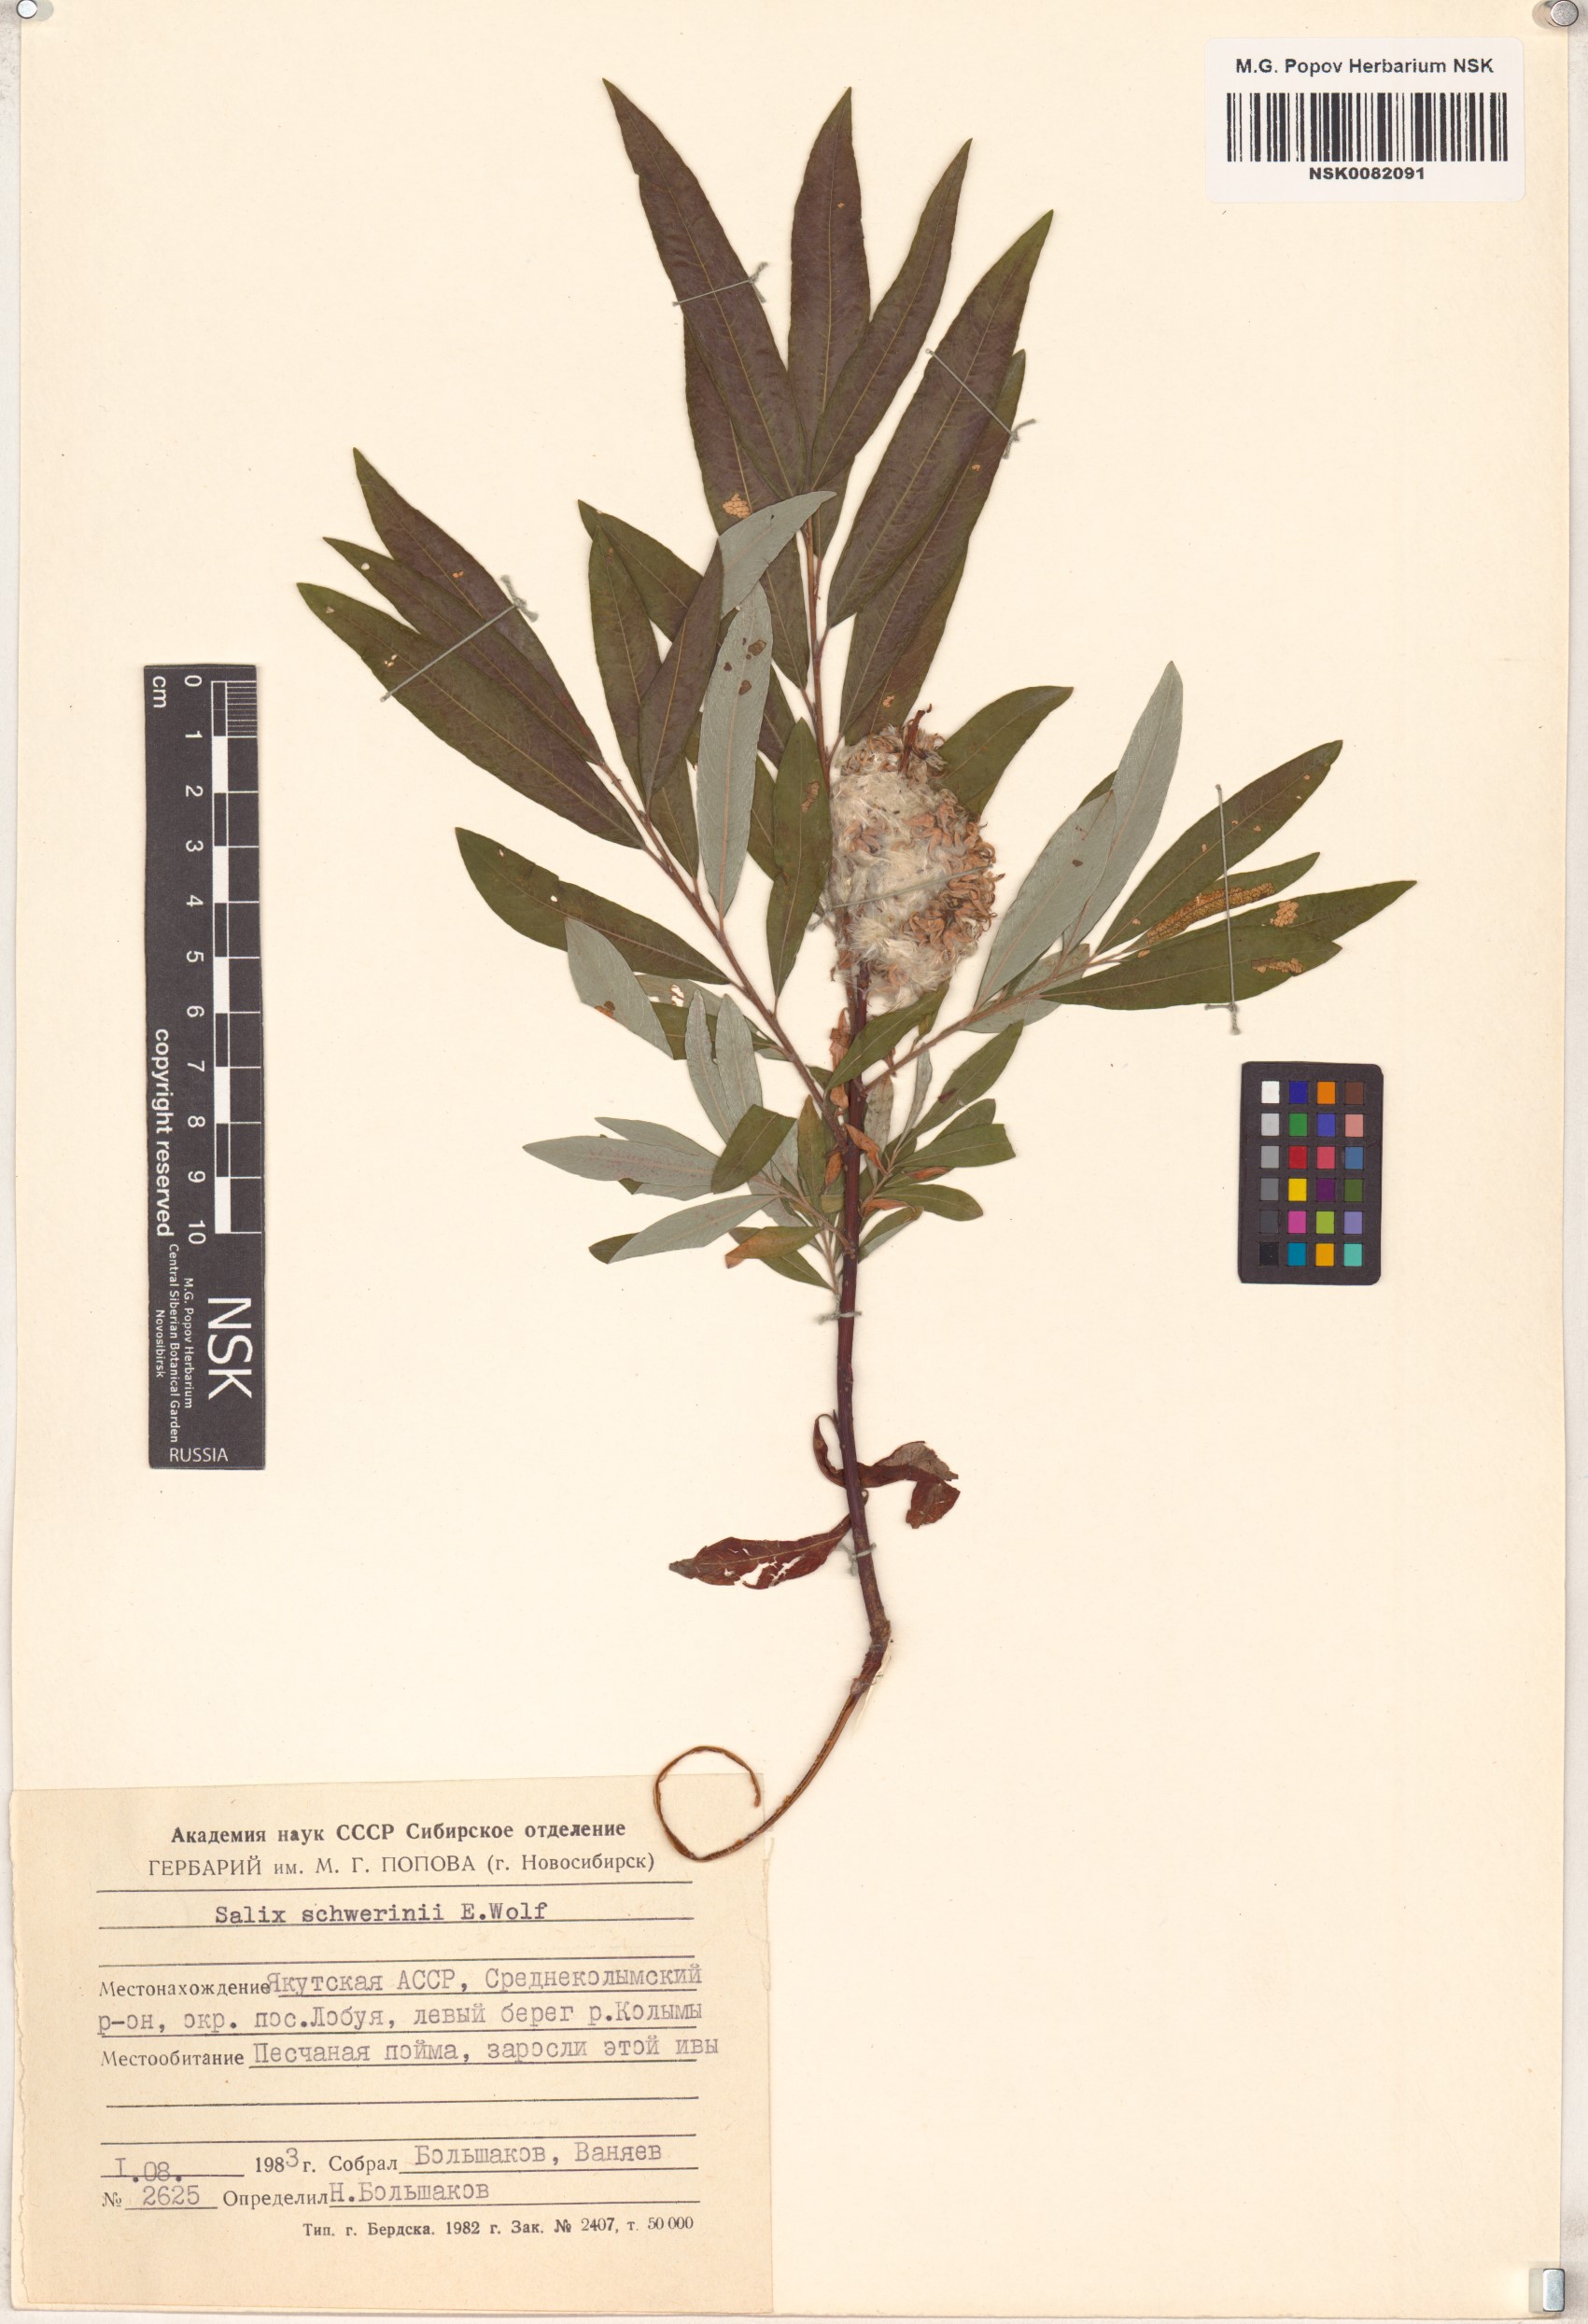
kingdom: Plantae
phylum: Tracheophyta
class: Magnoliopsida
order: Malpighiales
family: Salicaceae
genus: Salix
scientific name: Salix schwerinii
